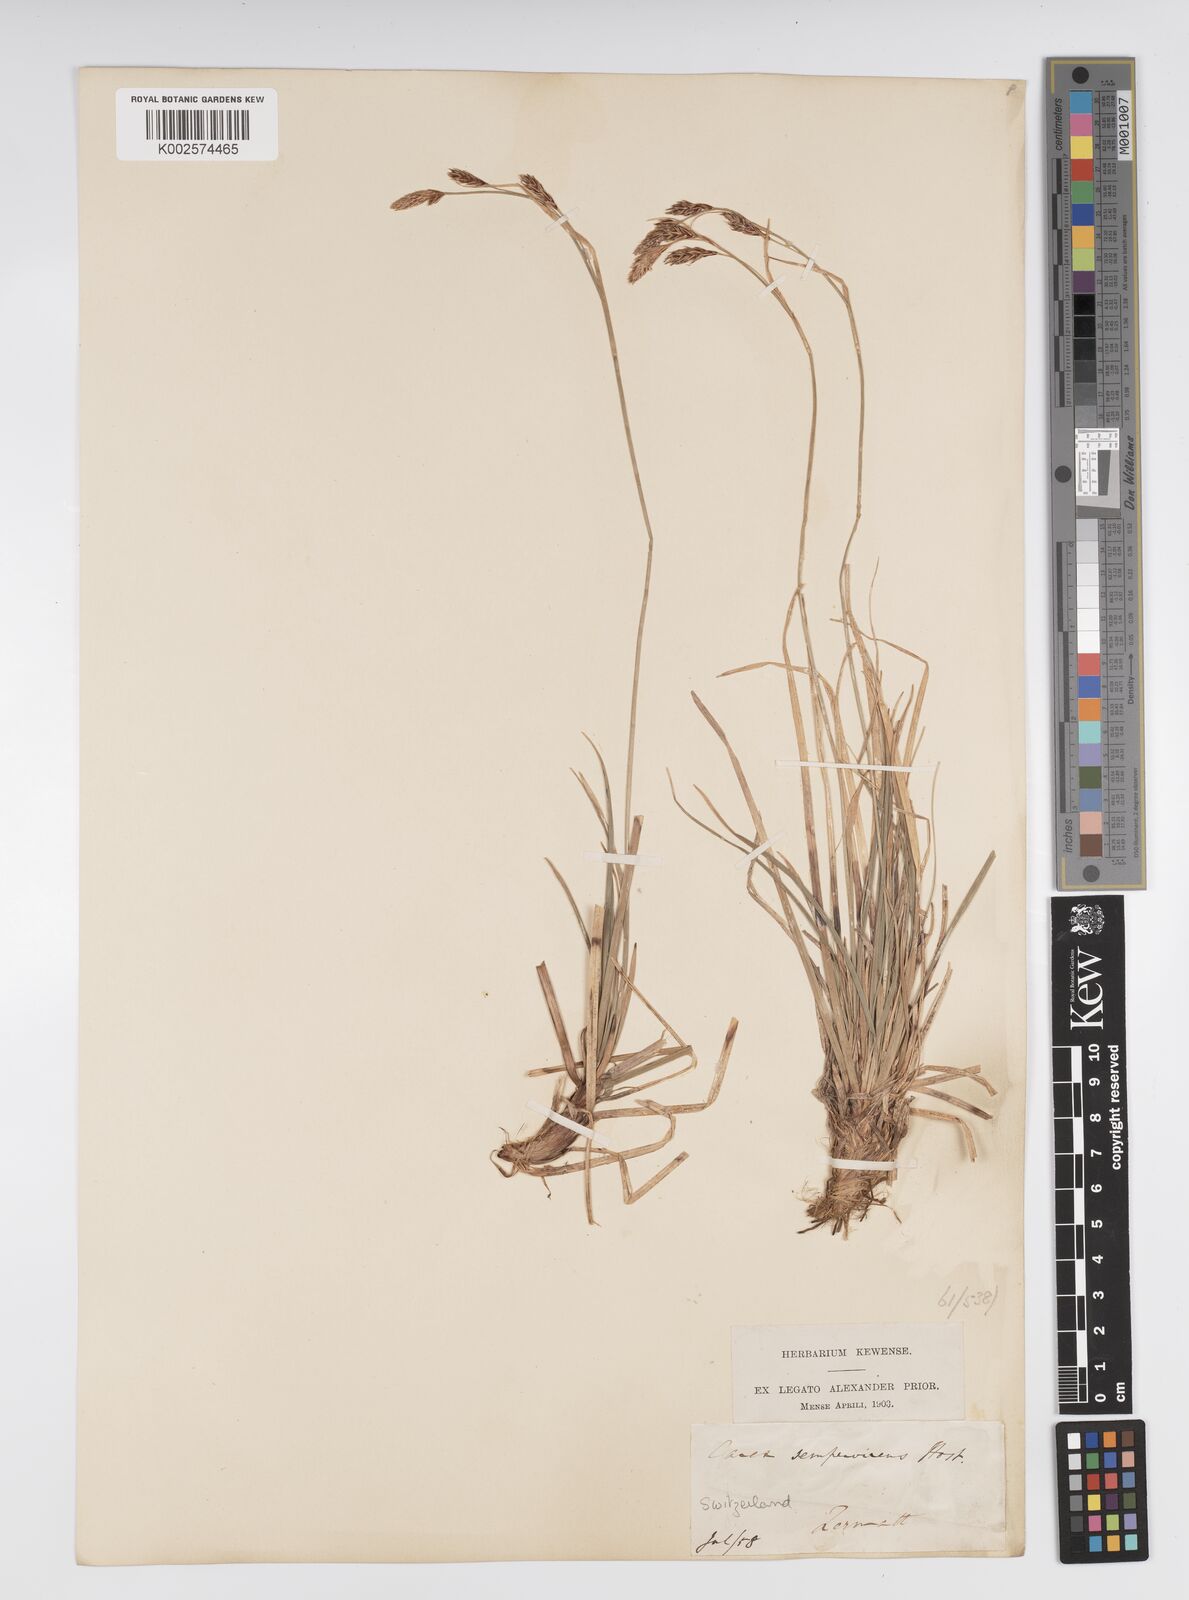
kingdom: Plantae
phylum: Tracheophyta
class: Liliopsida
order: Poales
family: Cyperaceae
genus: Carex
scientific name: Carex sempervirens
